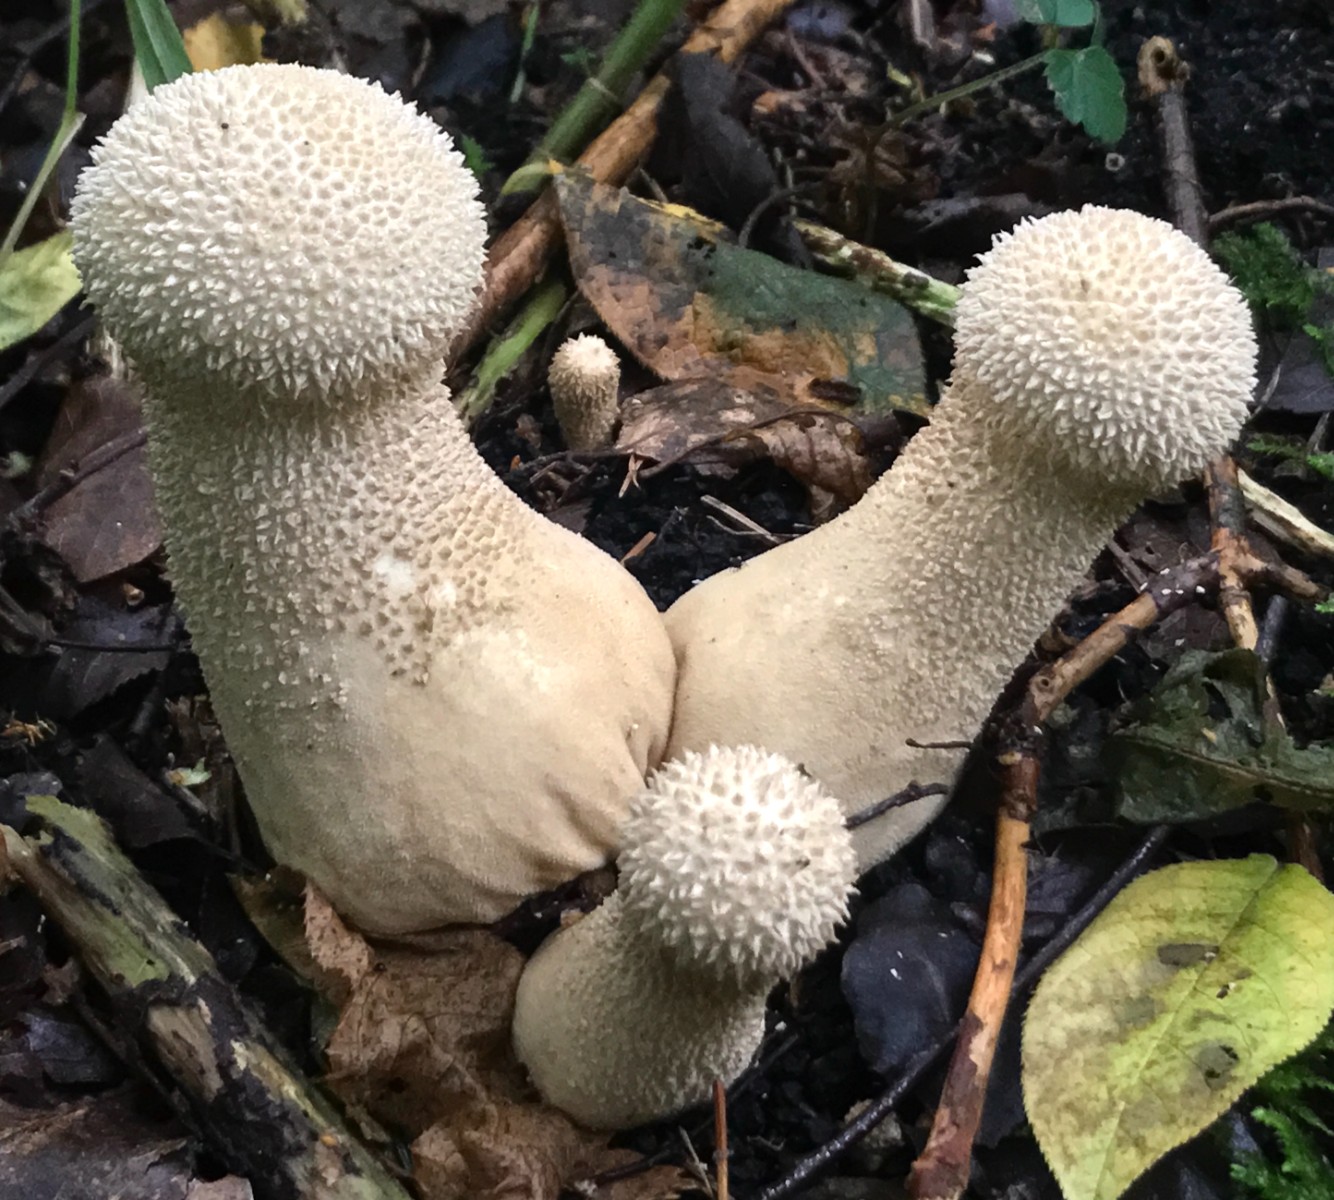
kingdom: Fungi
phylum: Basidiomycota
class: Agaricomycetes
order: Agaricales
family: Lycoperdaceae
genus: Lycoperdon
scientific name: Lycoperdon excipuliforme
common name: højstokket støvbold
